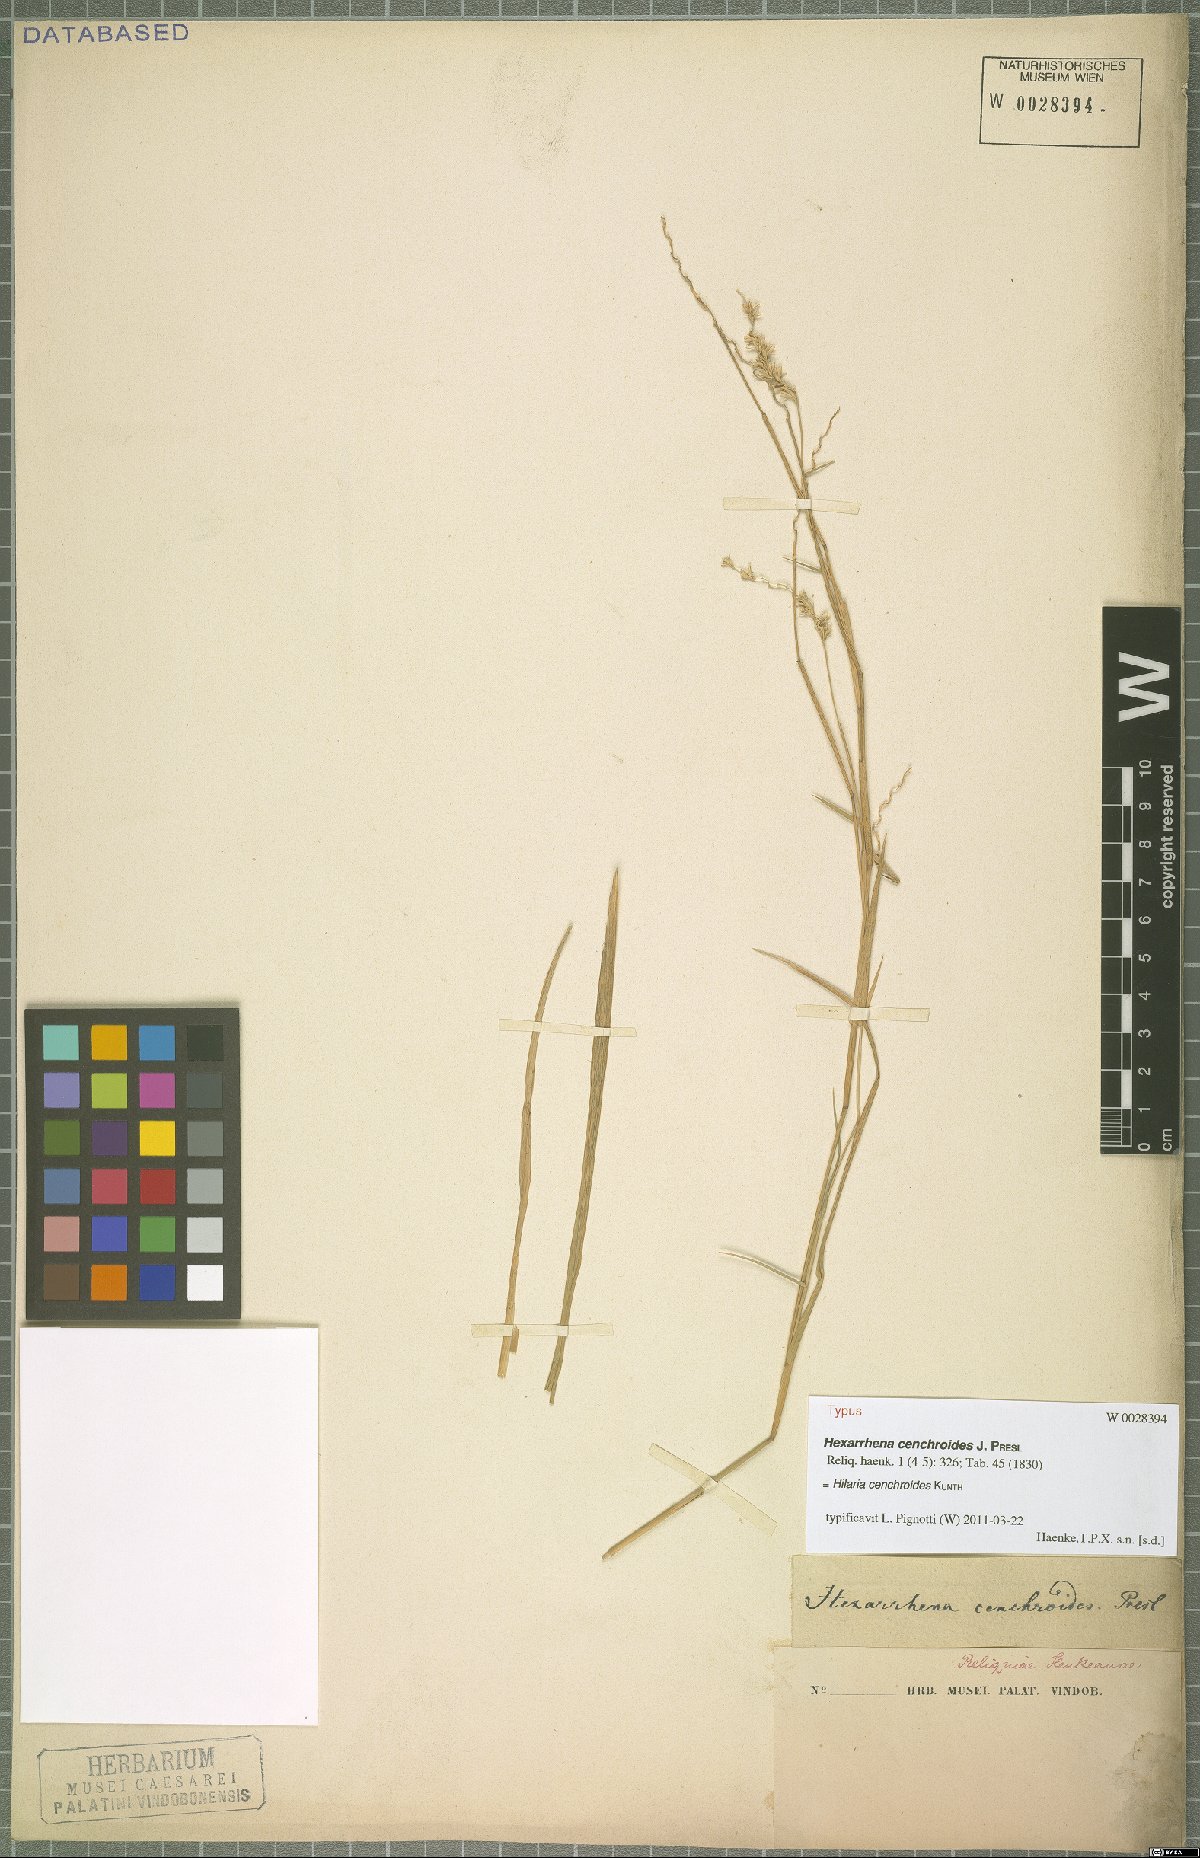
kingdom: Plantae
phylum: Tracheophyta
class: Liliopsida
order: Poales
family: Poaceae
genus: Hilaria
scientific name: Hilaria cenchroides
